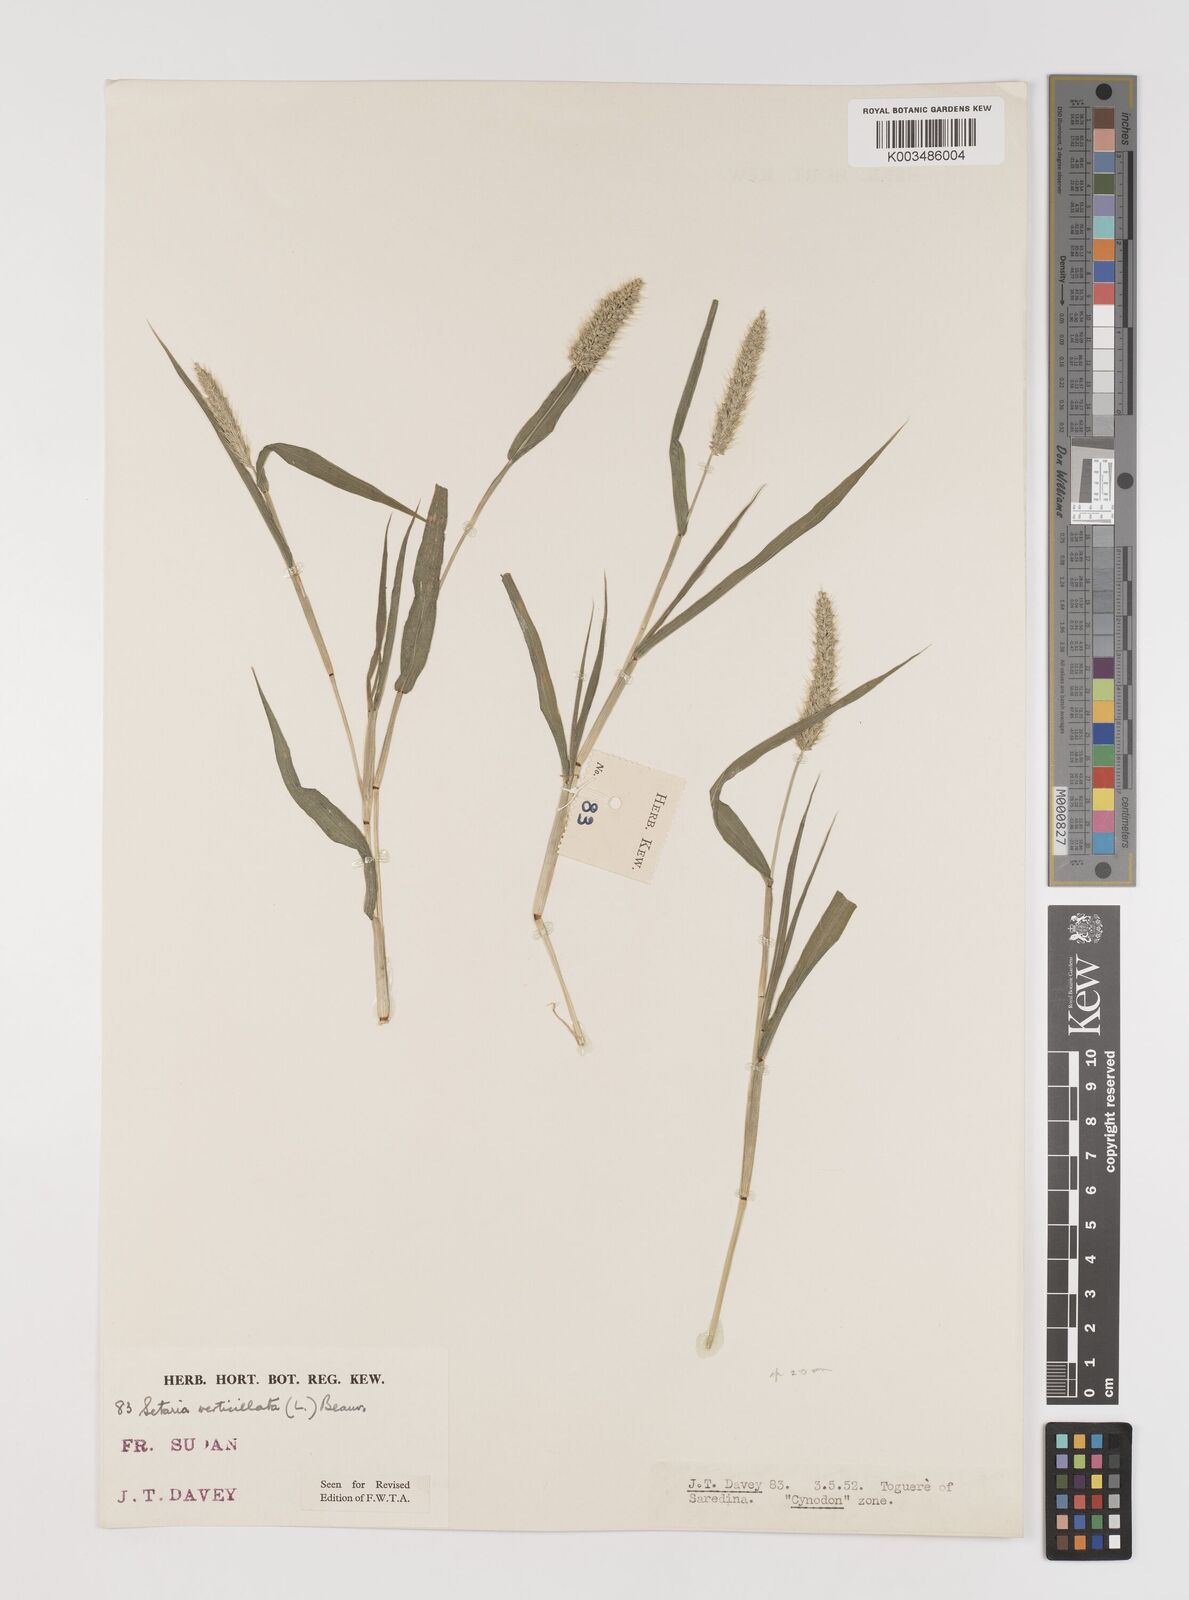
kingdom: Plantae
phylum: Tracheophyta
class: Liliopsida
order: Poales
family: Poaceae
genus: Setaria
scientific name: Setaria verticillata
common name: Hooked bristlegrass
